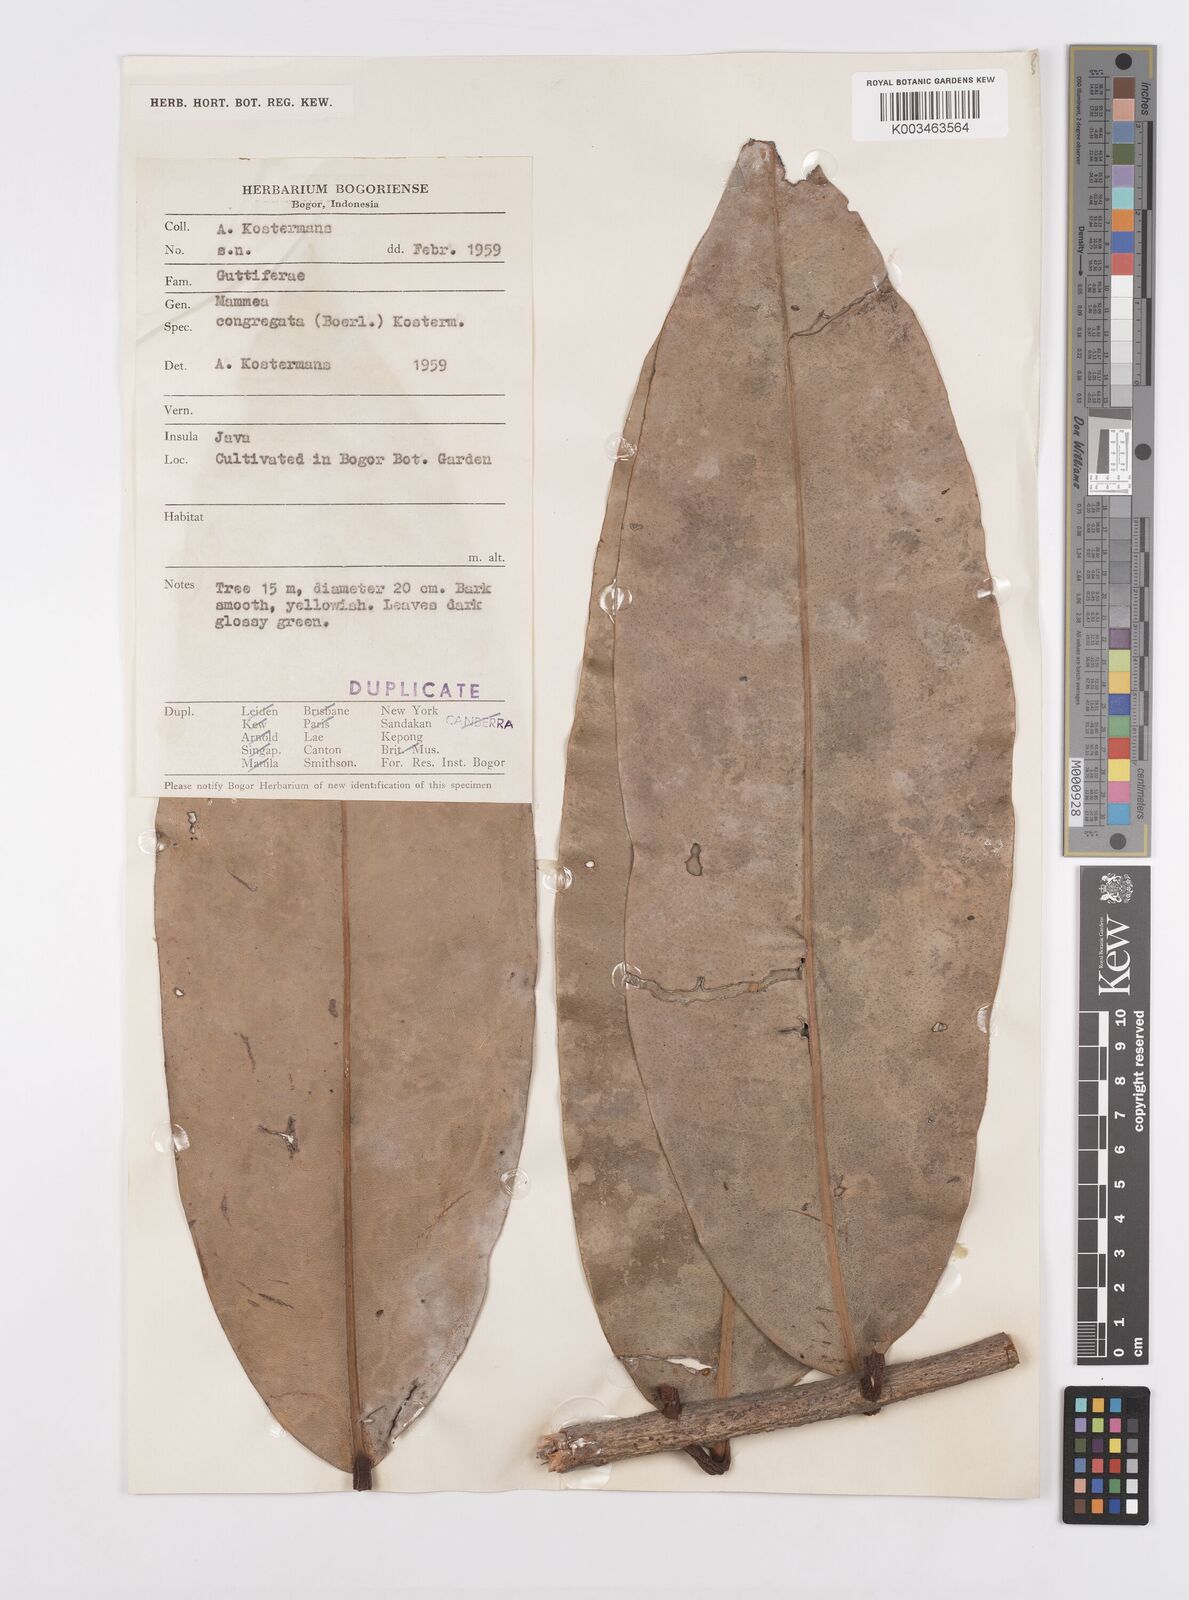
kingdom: Plantae
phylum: Tracheophyta
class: Magnoliopsida
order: Malpighiales
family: Calophyllaceae
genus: Mammea
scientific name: Mammea congregata
